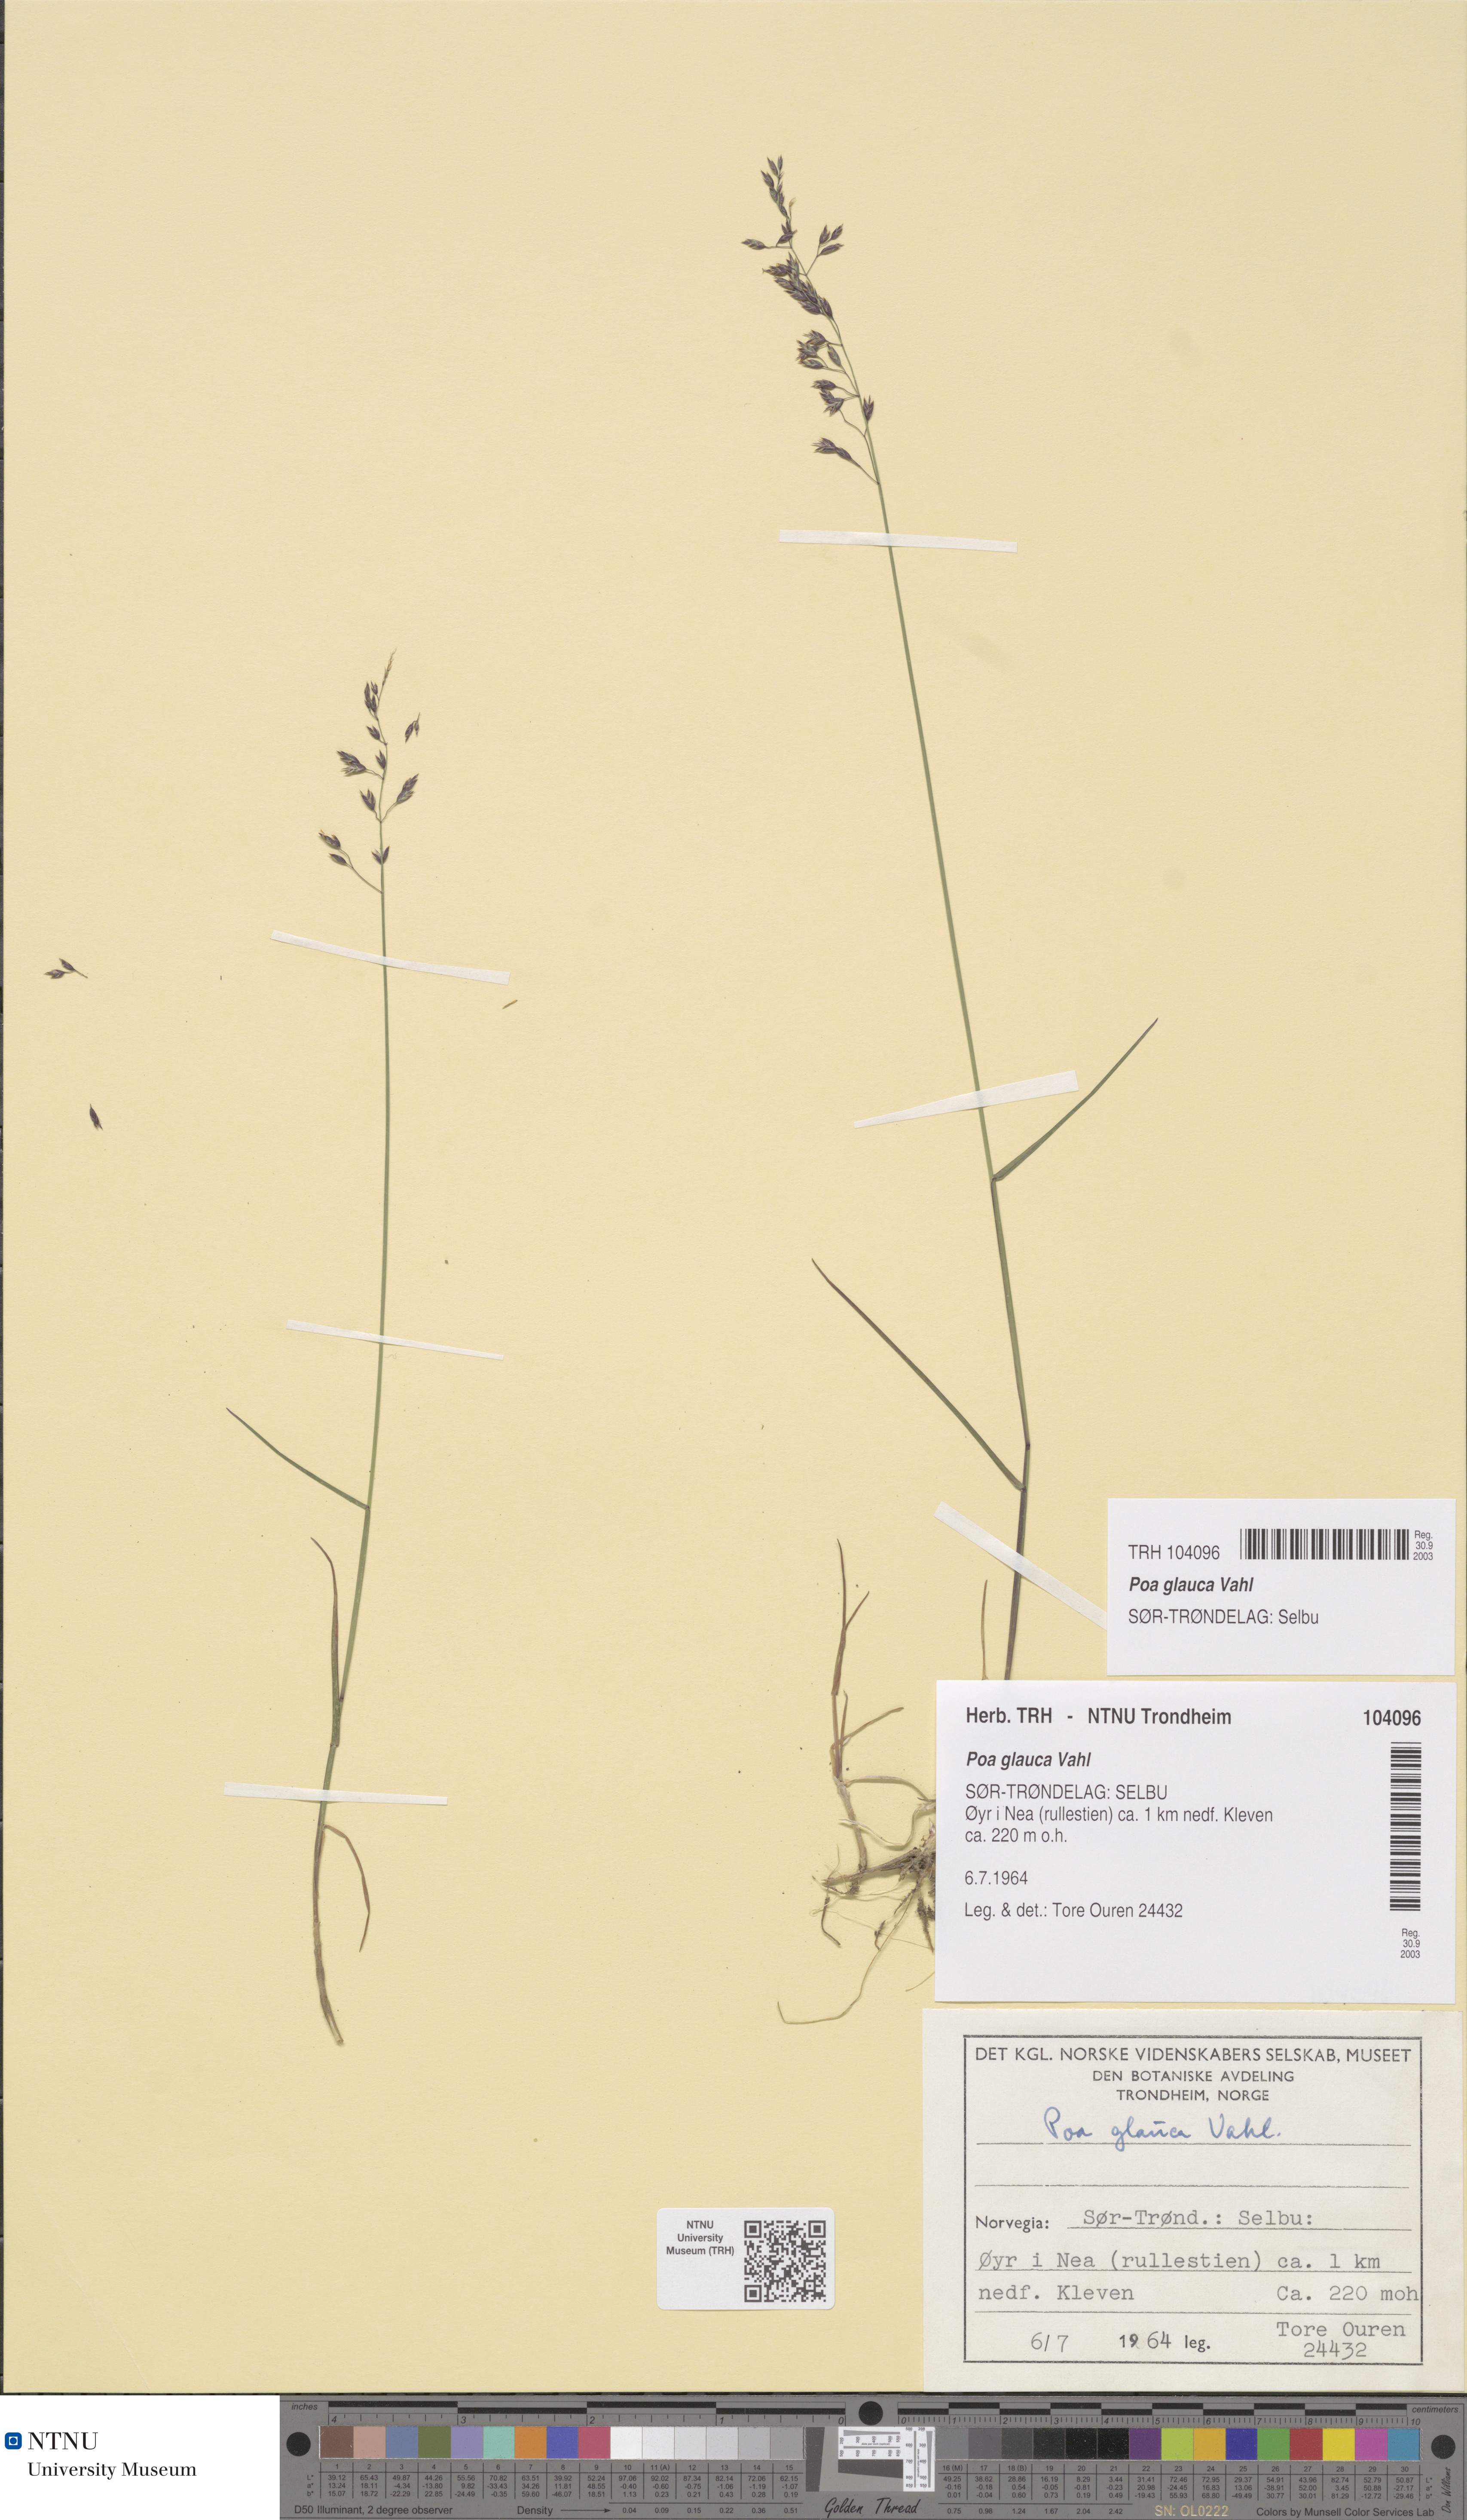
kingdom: Plantae
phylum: Tracheophyta
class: Liliopsida
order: Poales
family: Poaceae
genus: Poa
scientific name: Poa glauca
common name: Glaucous bluegrass
